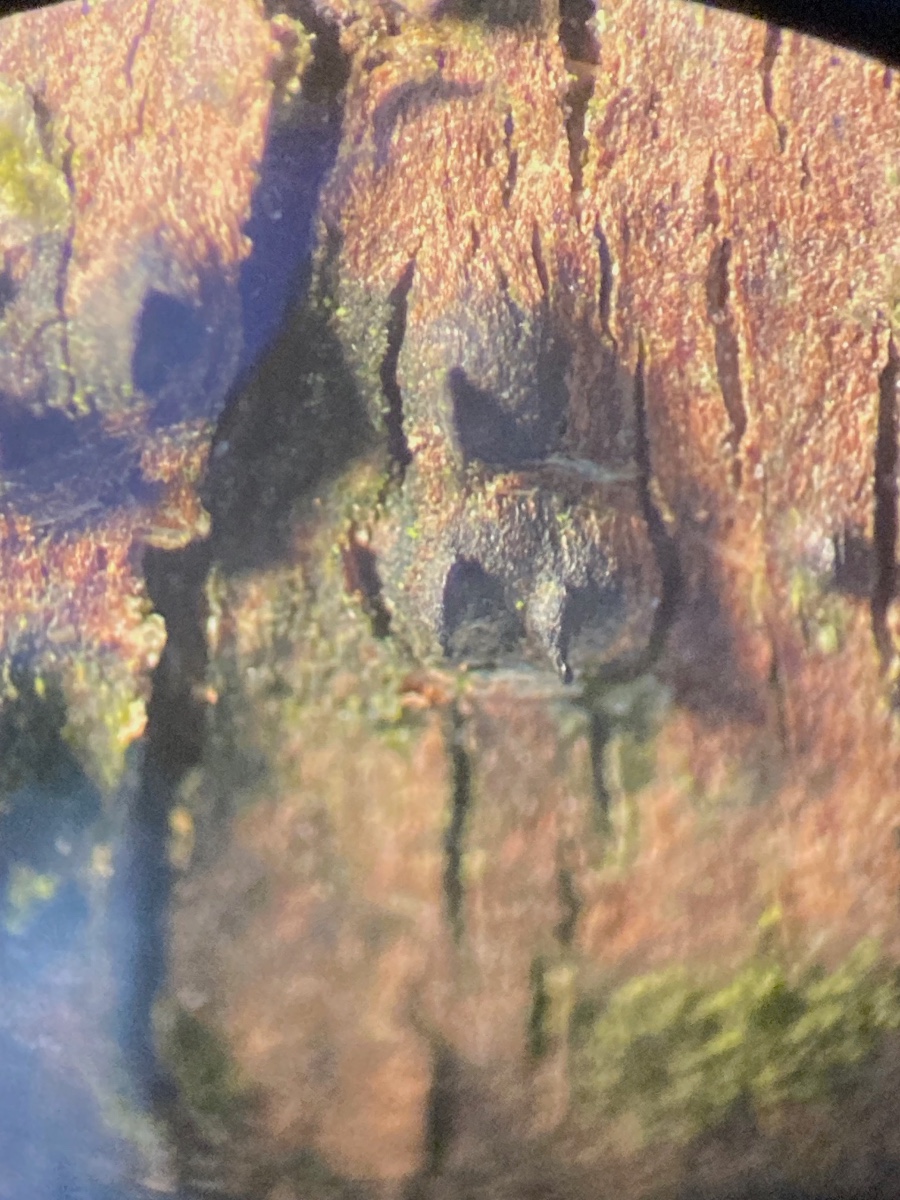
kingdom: Fungi
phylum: Ascomycota
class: Dothideomycetes
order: Pleosporales
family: Lophiostomataceae
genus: Lophiostoma
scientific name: Lophiostoma quadrinucleatum
